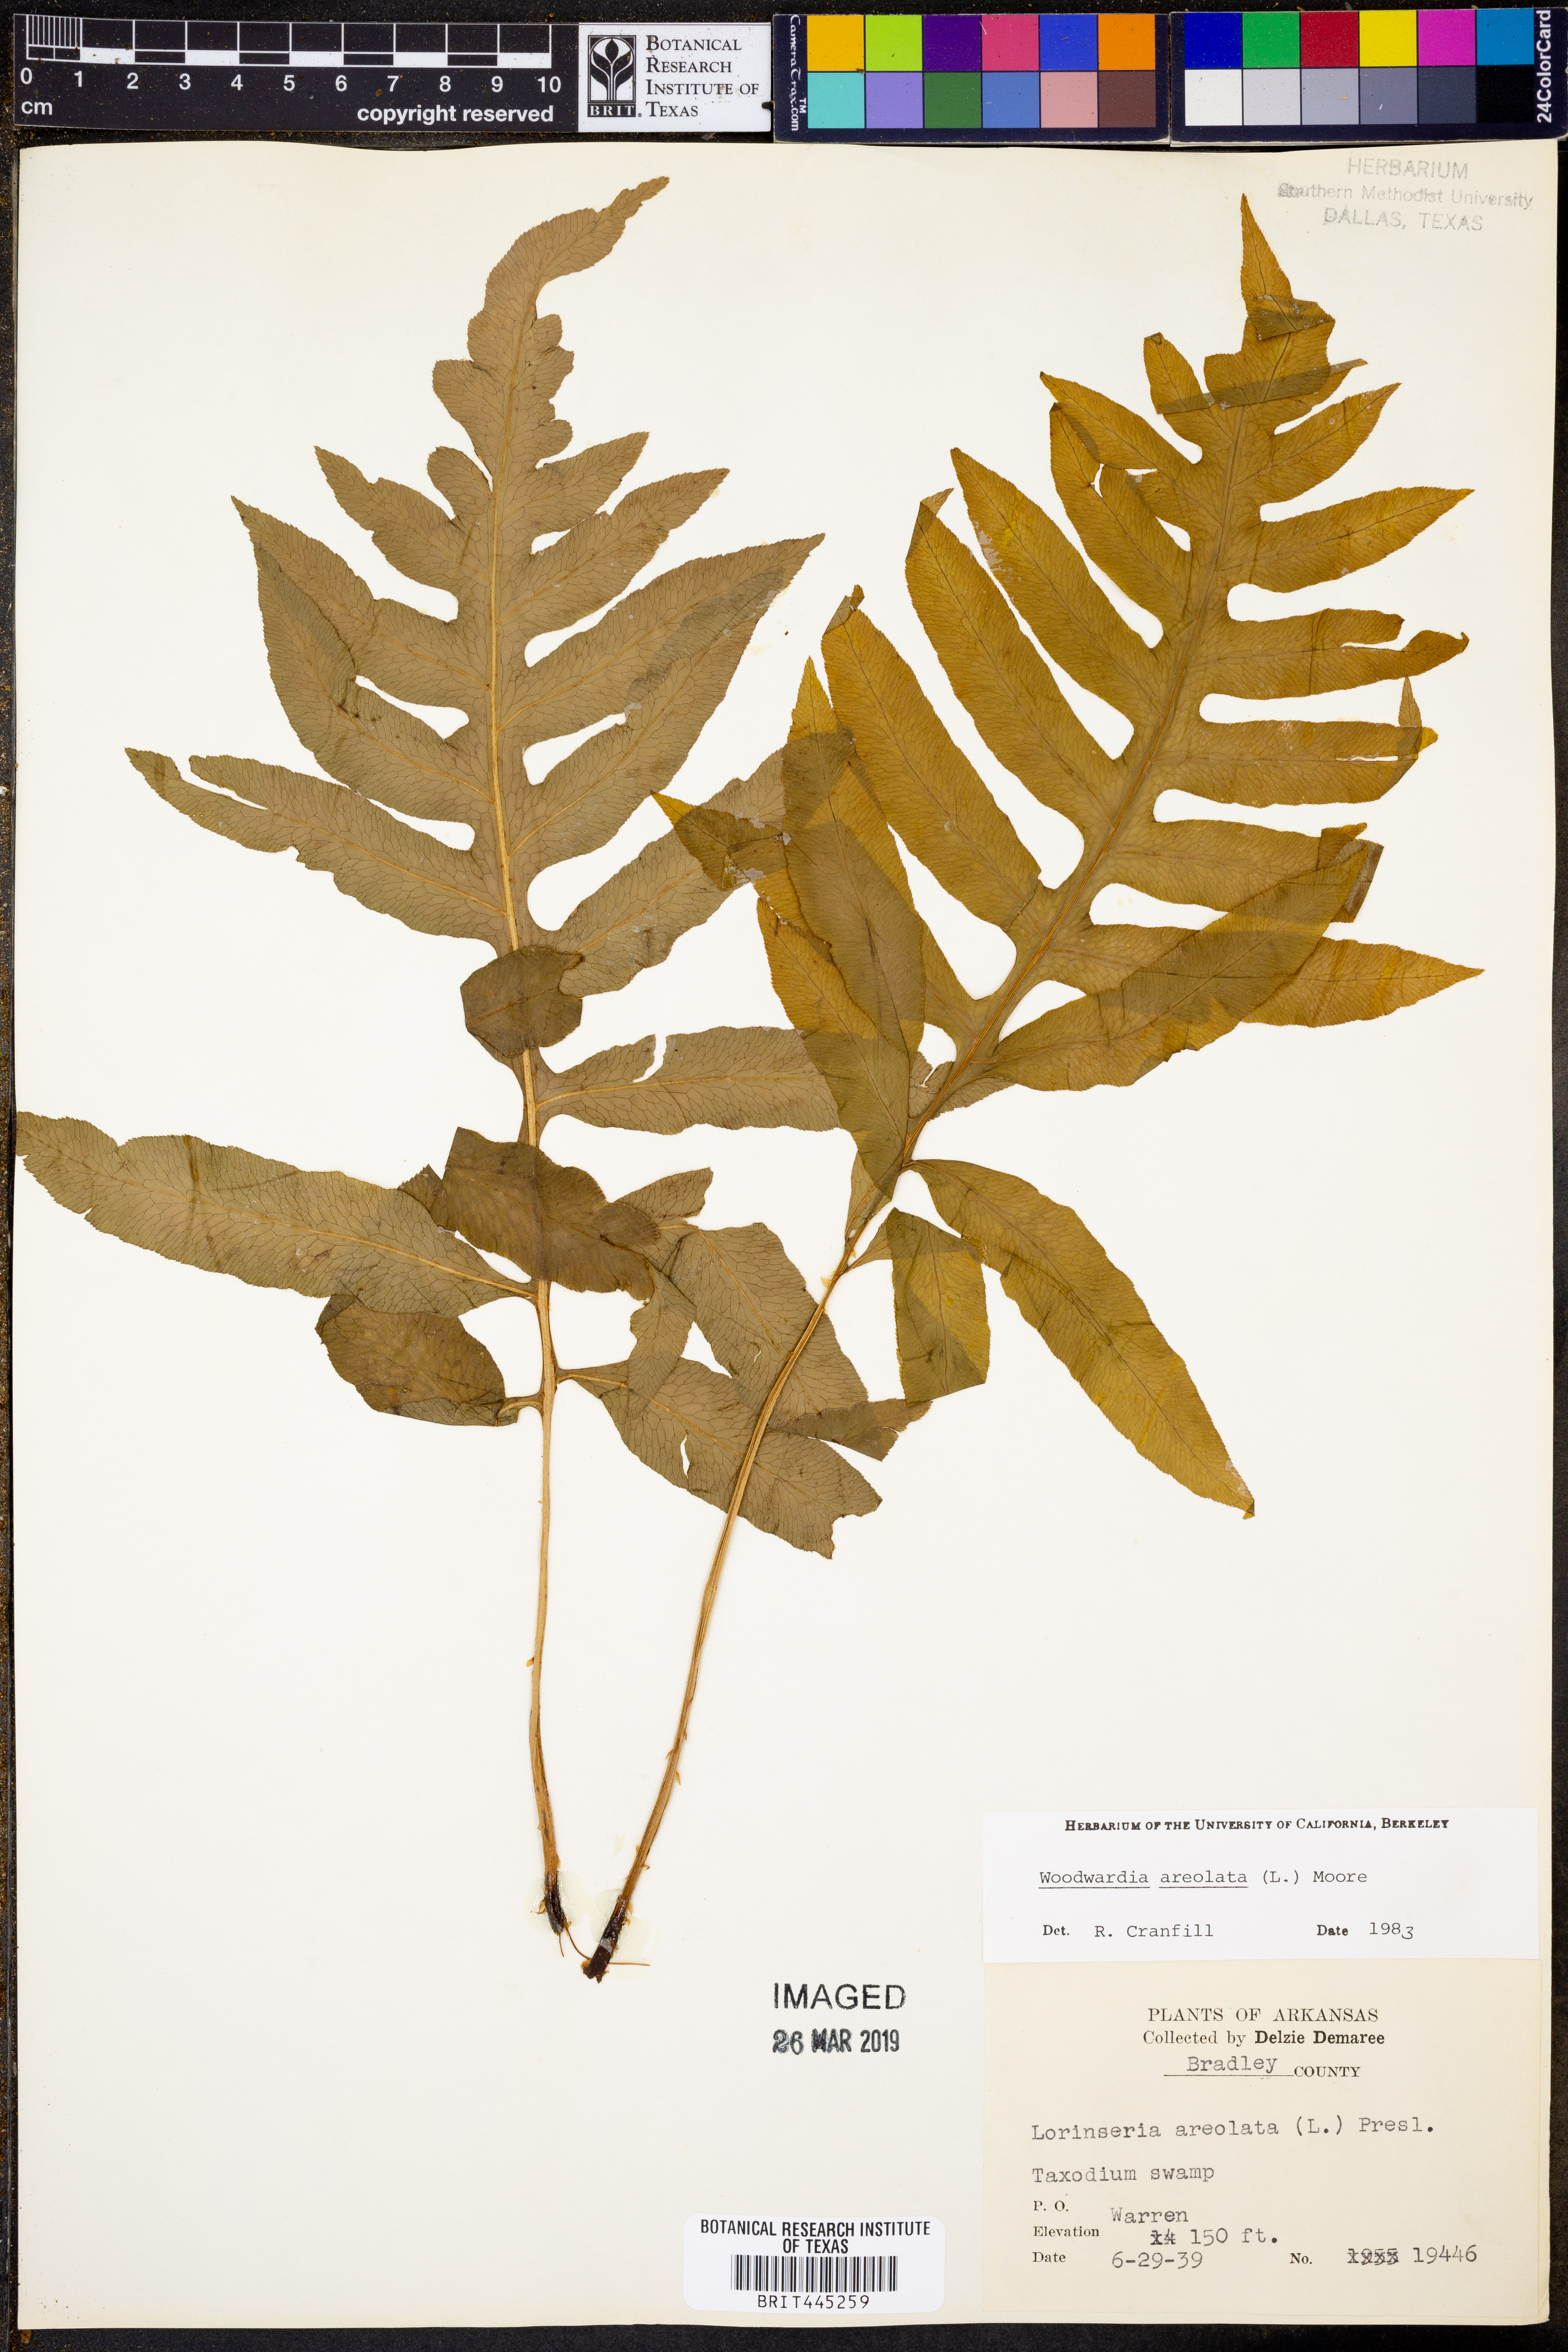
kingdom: Plantae
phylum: Tracheophyta
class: Polypodiopsida
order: Polypodiales
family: Blechnaceae
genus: Lorinseria
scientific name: Lorinseria areolata
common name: Dwarf chain fern
